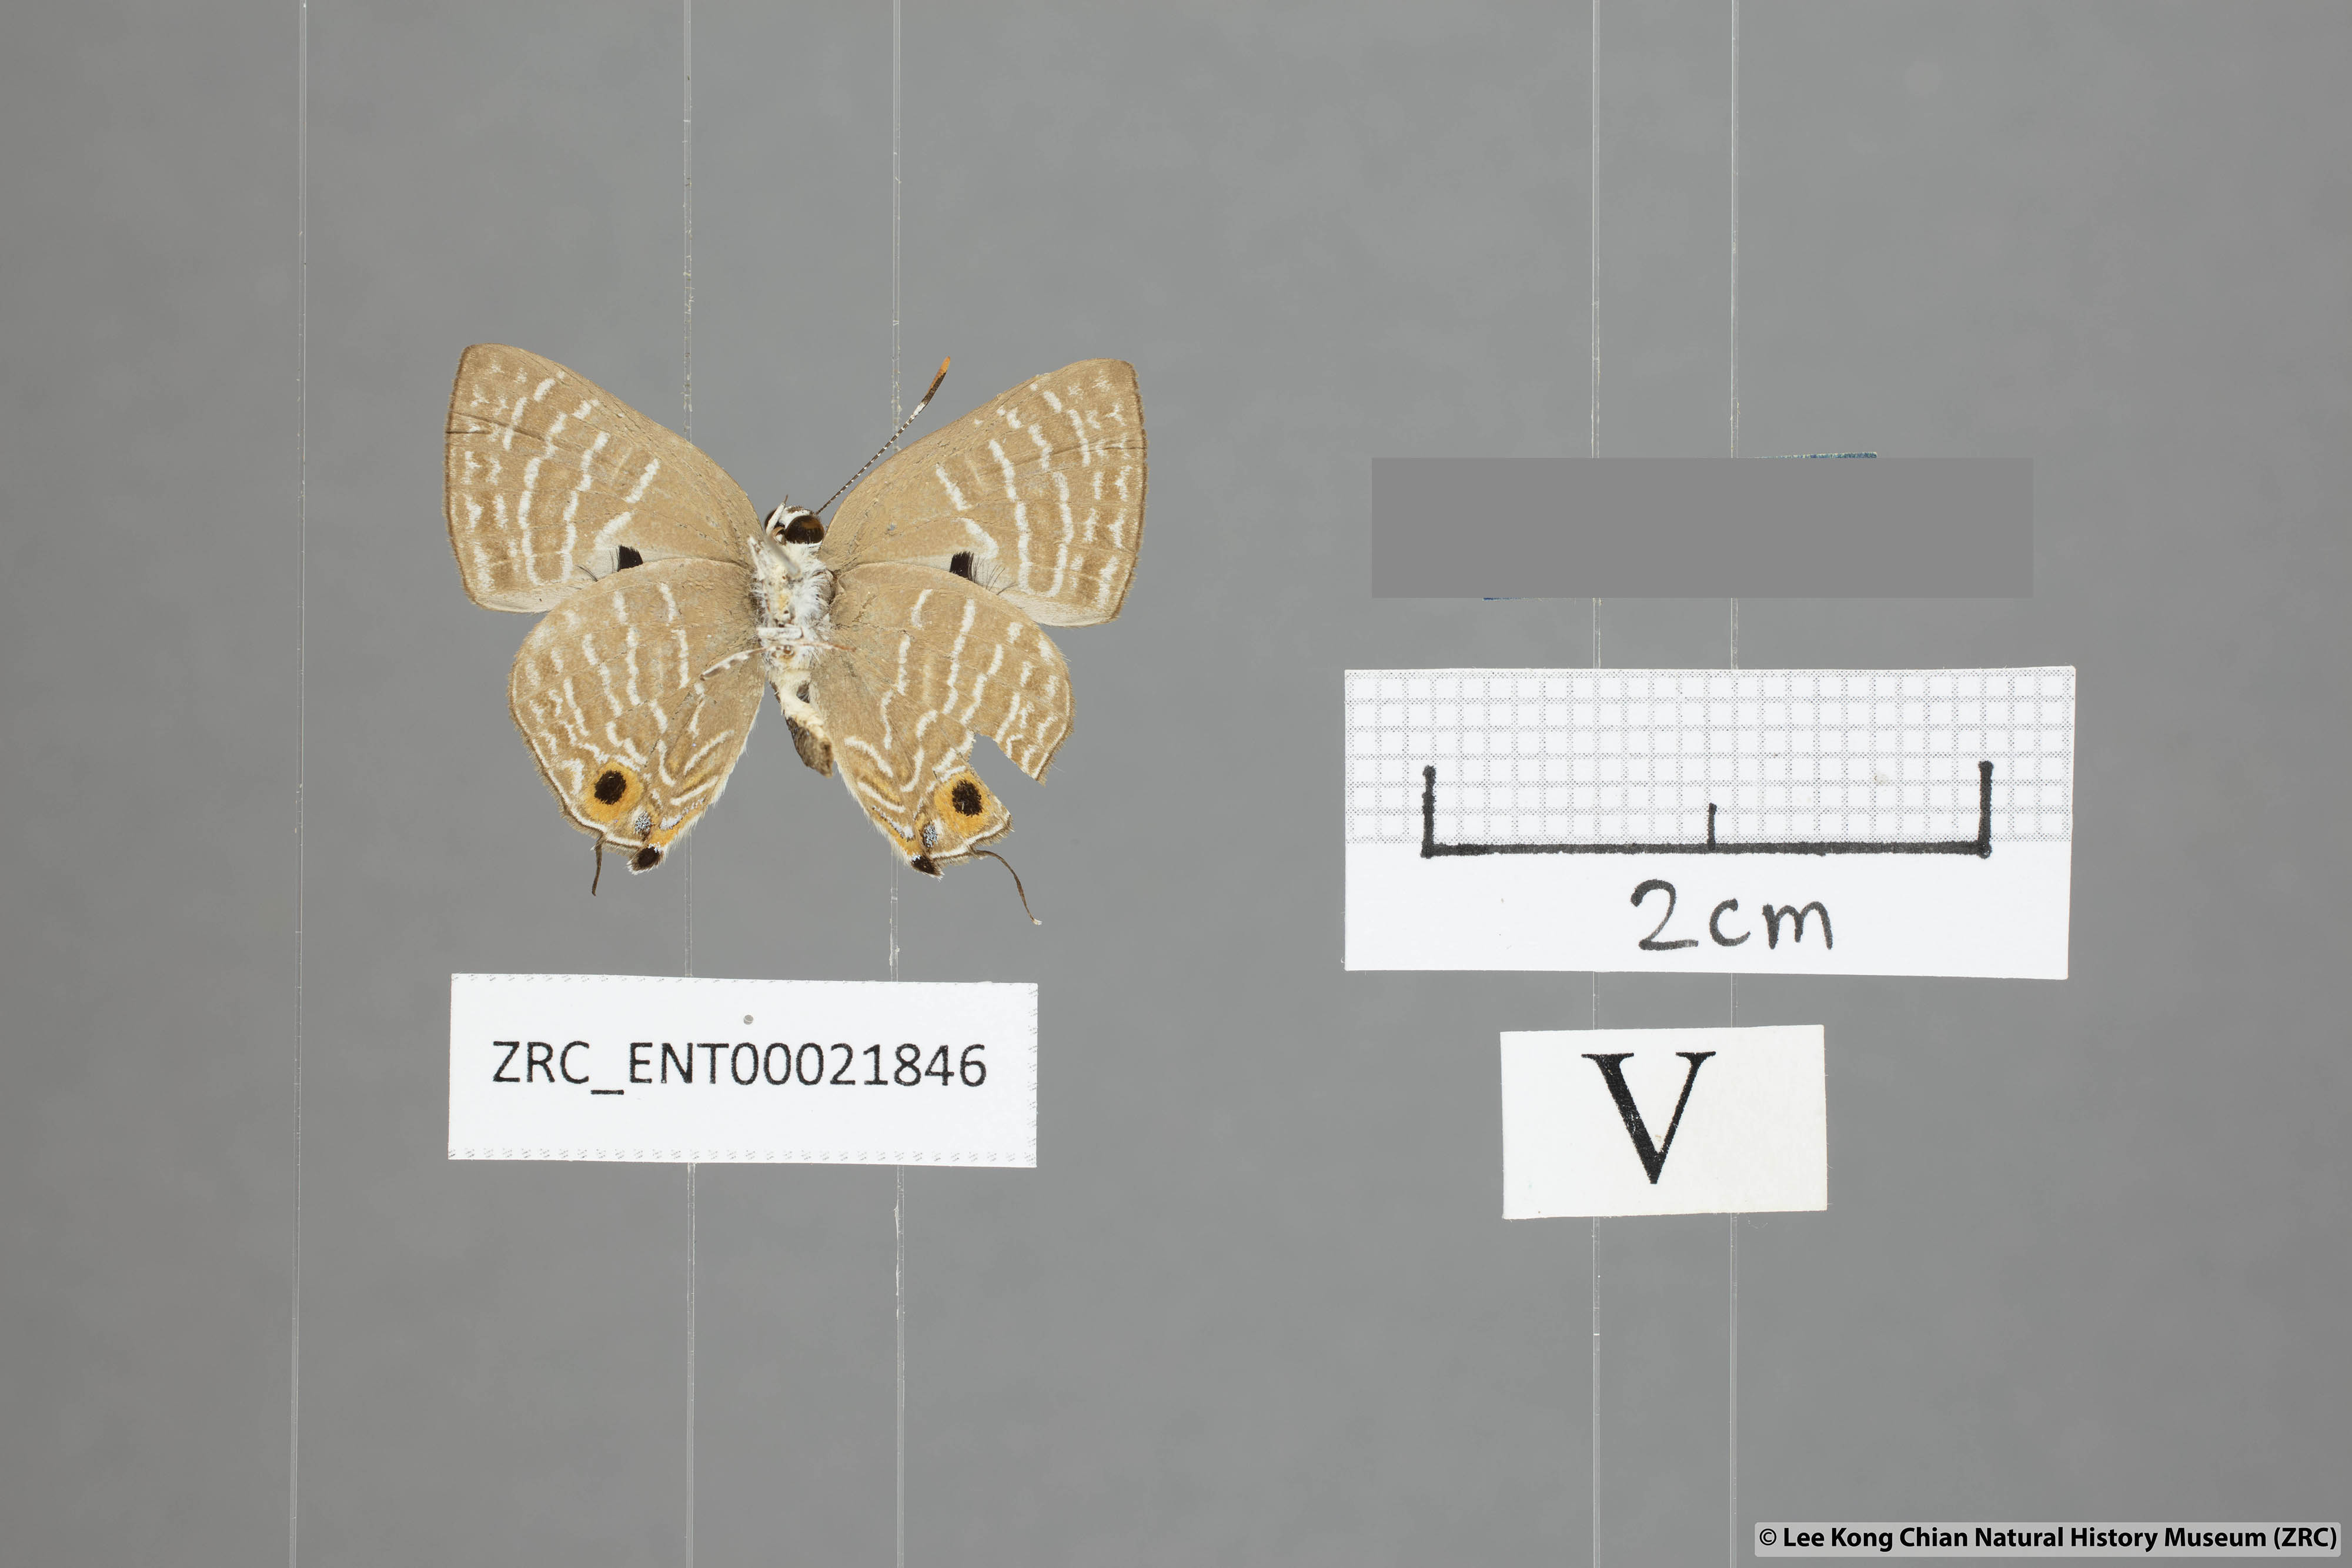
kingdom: Animalia
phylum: Arthropoda
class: Insecta
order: Lepidoptera
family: Lycaenidae
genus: Deudorix
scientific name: Deudorix kessuma
